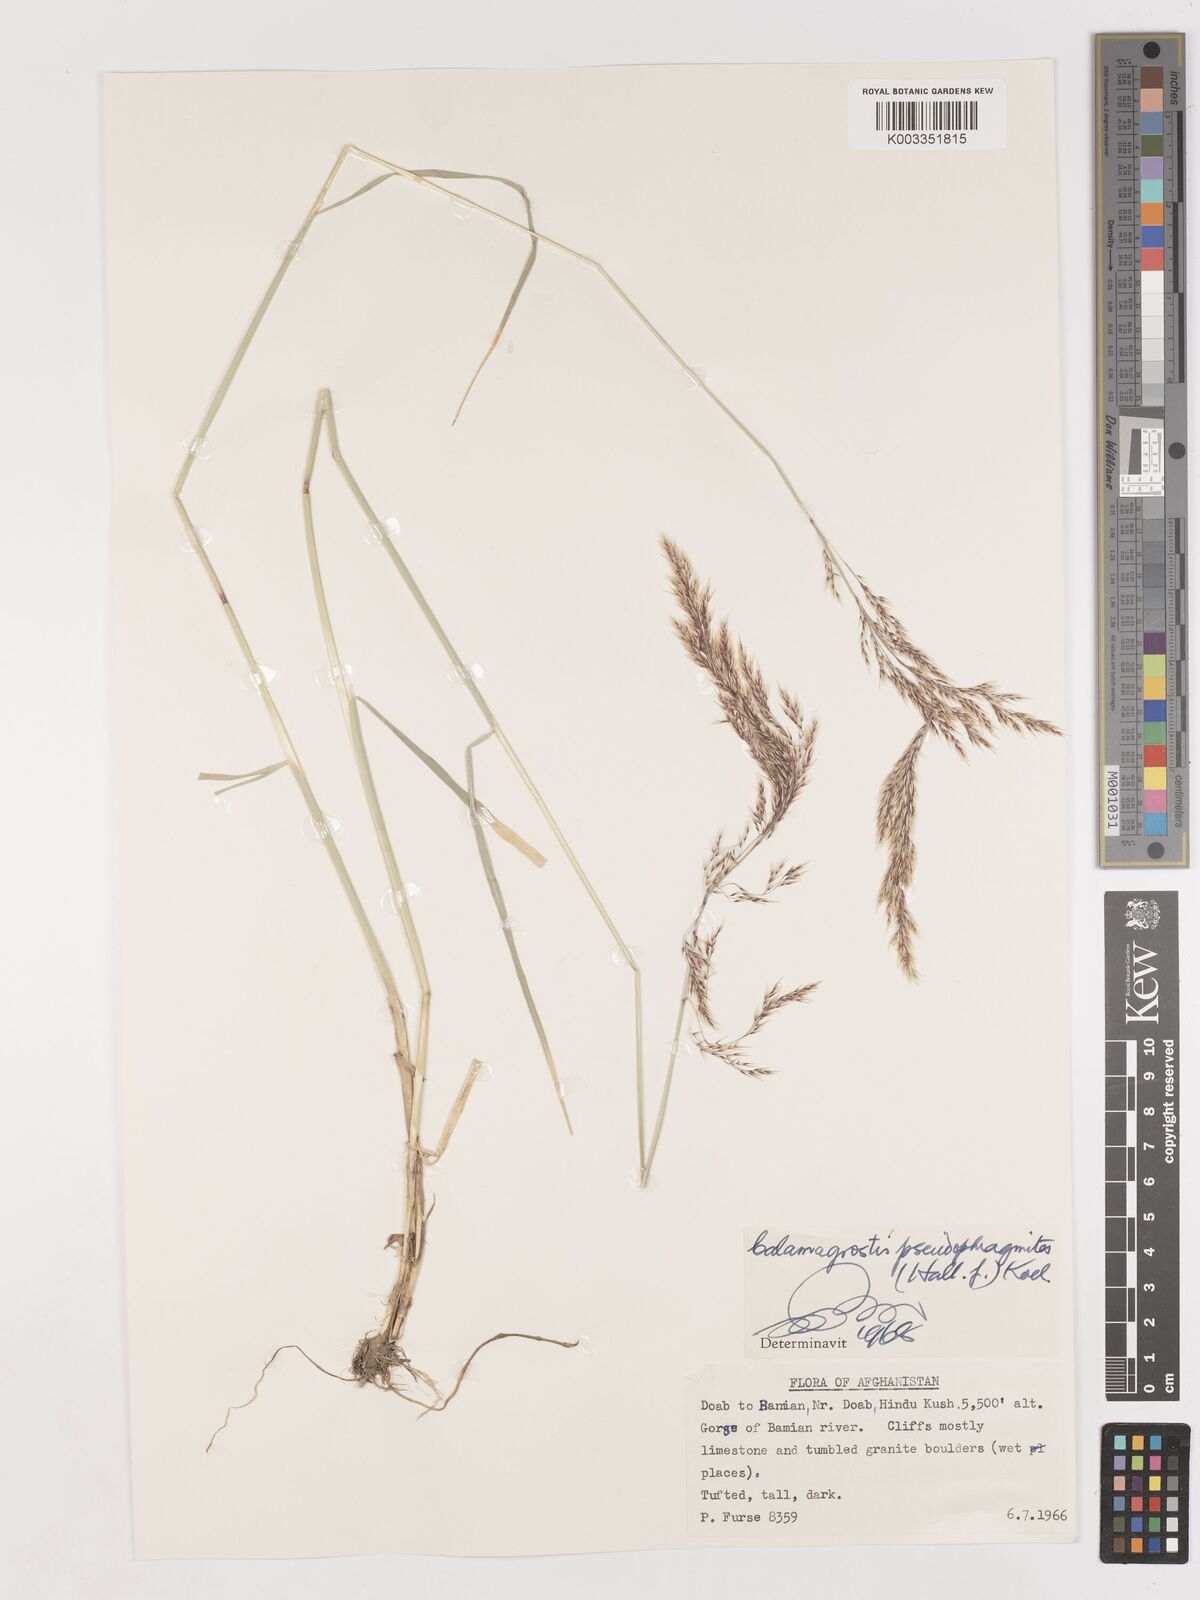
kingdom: Plantae
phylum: Tracheophyta
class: Liliopsida
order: Poales
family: Poaceae
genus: Calamagrostis
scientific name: Calamagrostis pseudophragmites
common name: Coastal small-reed
